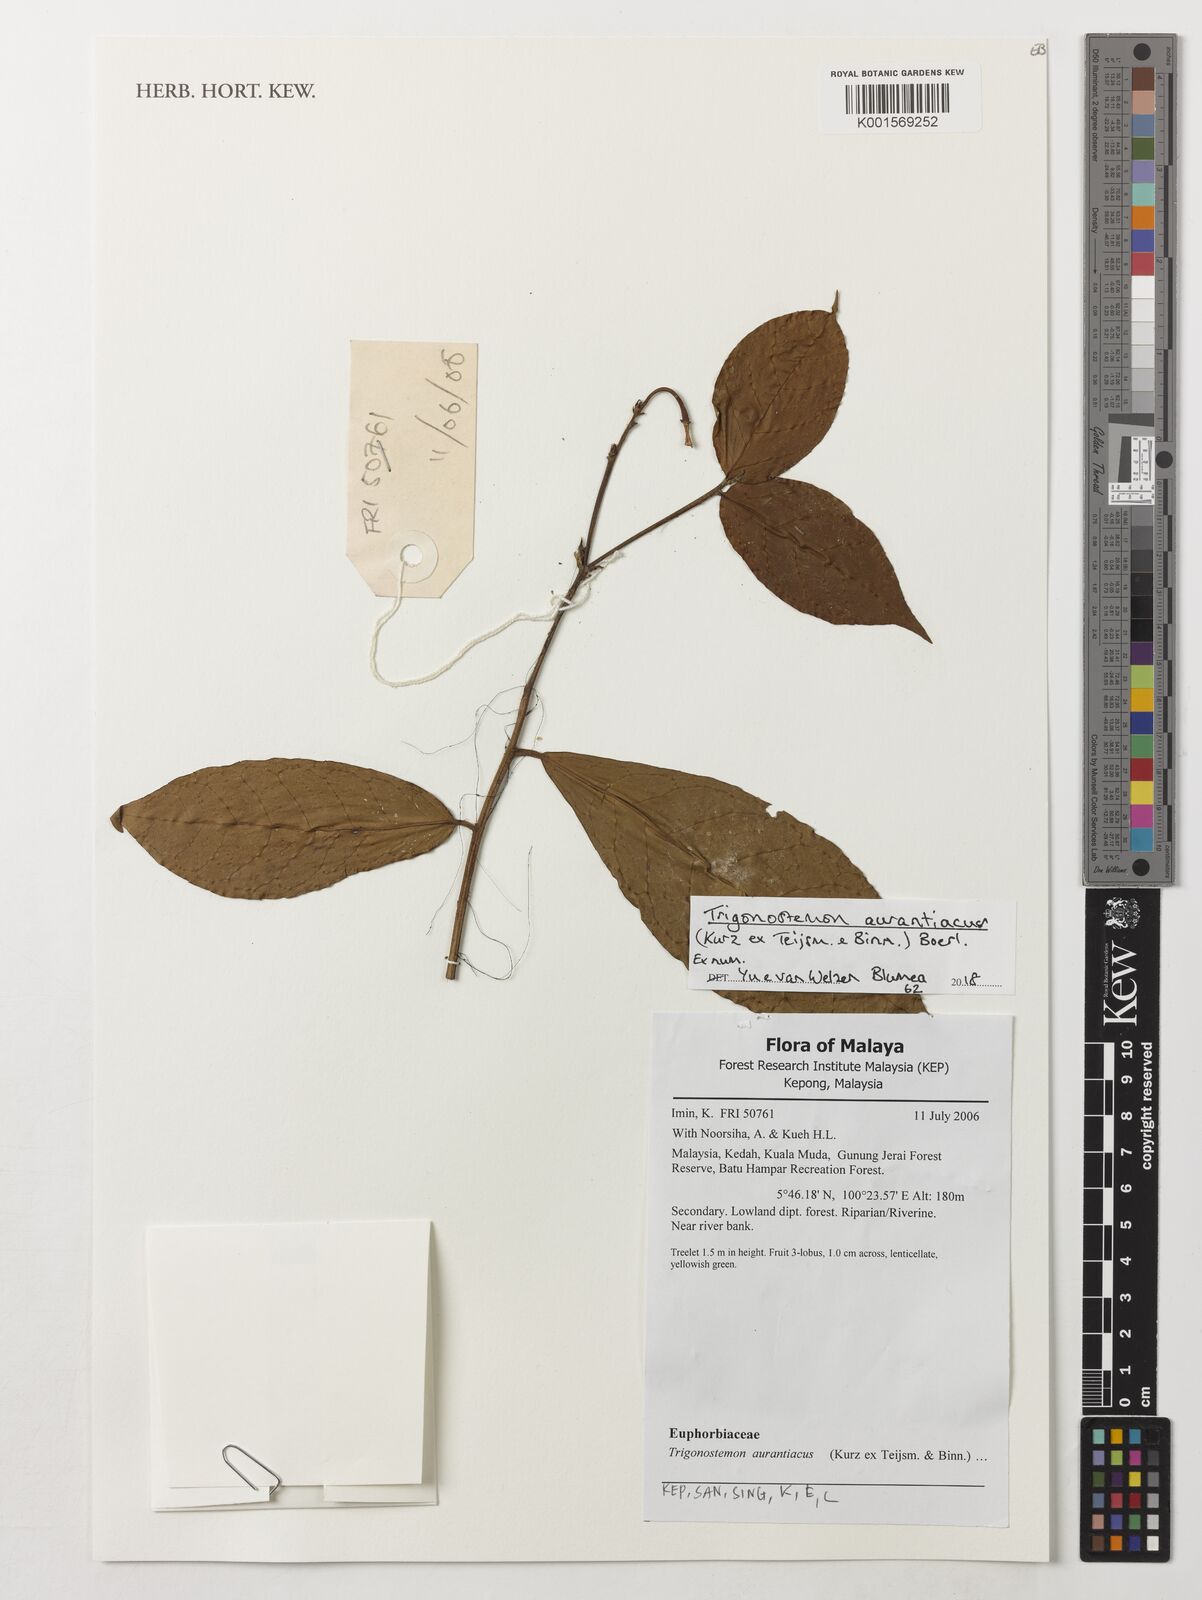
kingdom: Plantae
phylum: Tracheophyta
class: Magnoliopsida
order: Malpighiales
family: Euphorbiaceae
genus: Trigonostemon
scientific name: Trigonostemon aurantiacus
